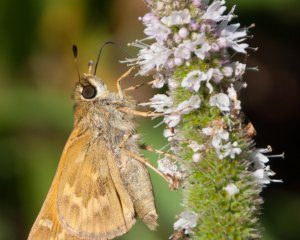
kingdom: Animalia
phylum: Arthropoda
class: Insecta
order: Lepidoptera
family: Hesperiidae
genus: Atalopedes
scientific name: Atalopedes campestris
